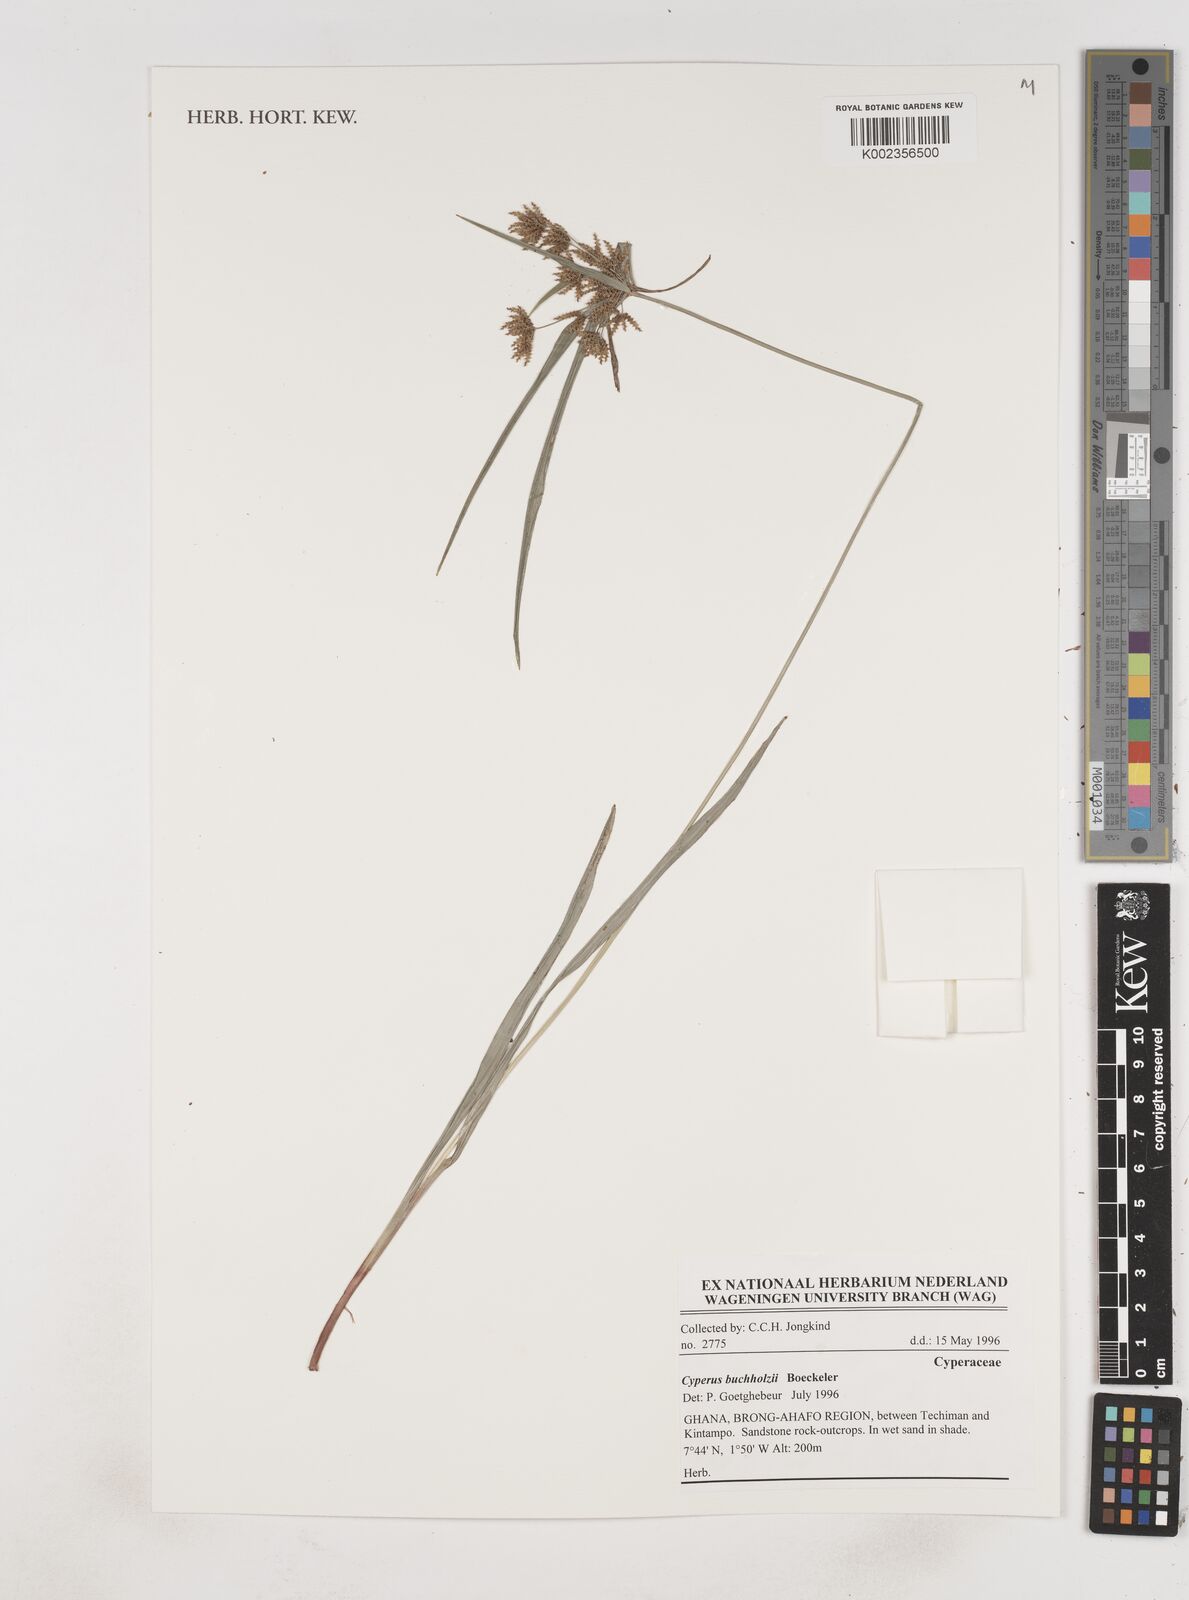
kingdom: Plantae
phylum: Tracheophyta
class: Liliopsida
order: Poales
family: Cyperaceae
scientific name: Cyperaceae
